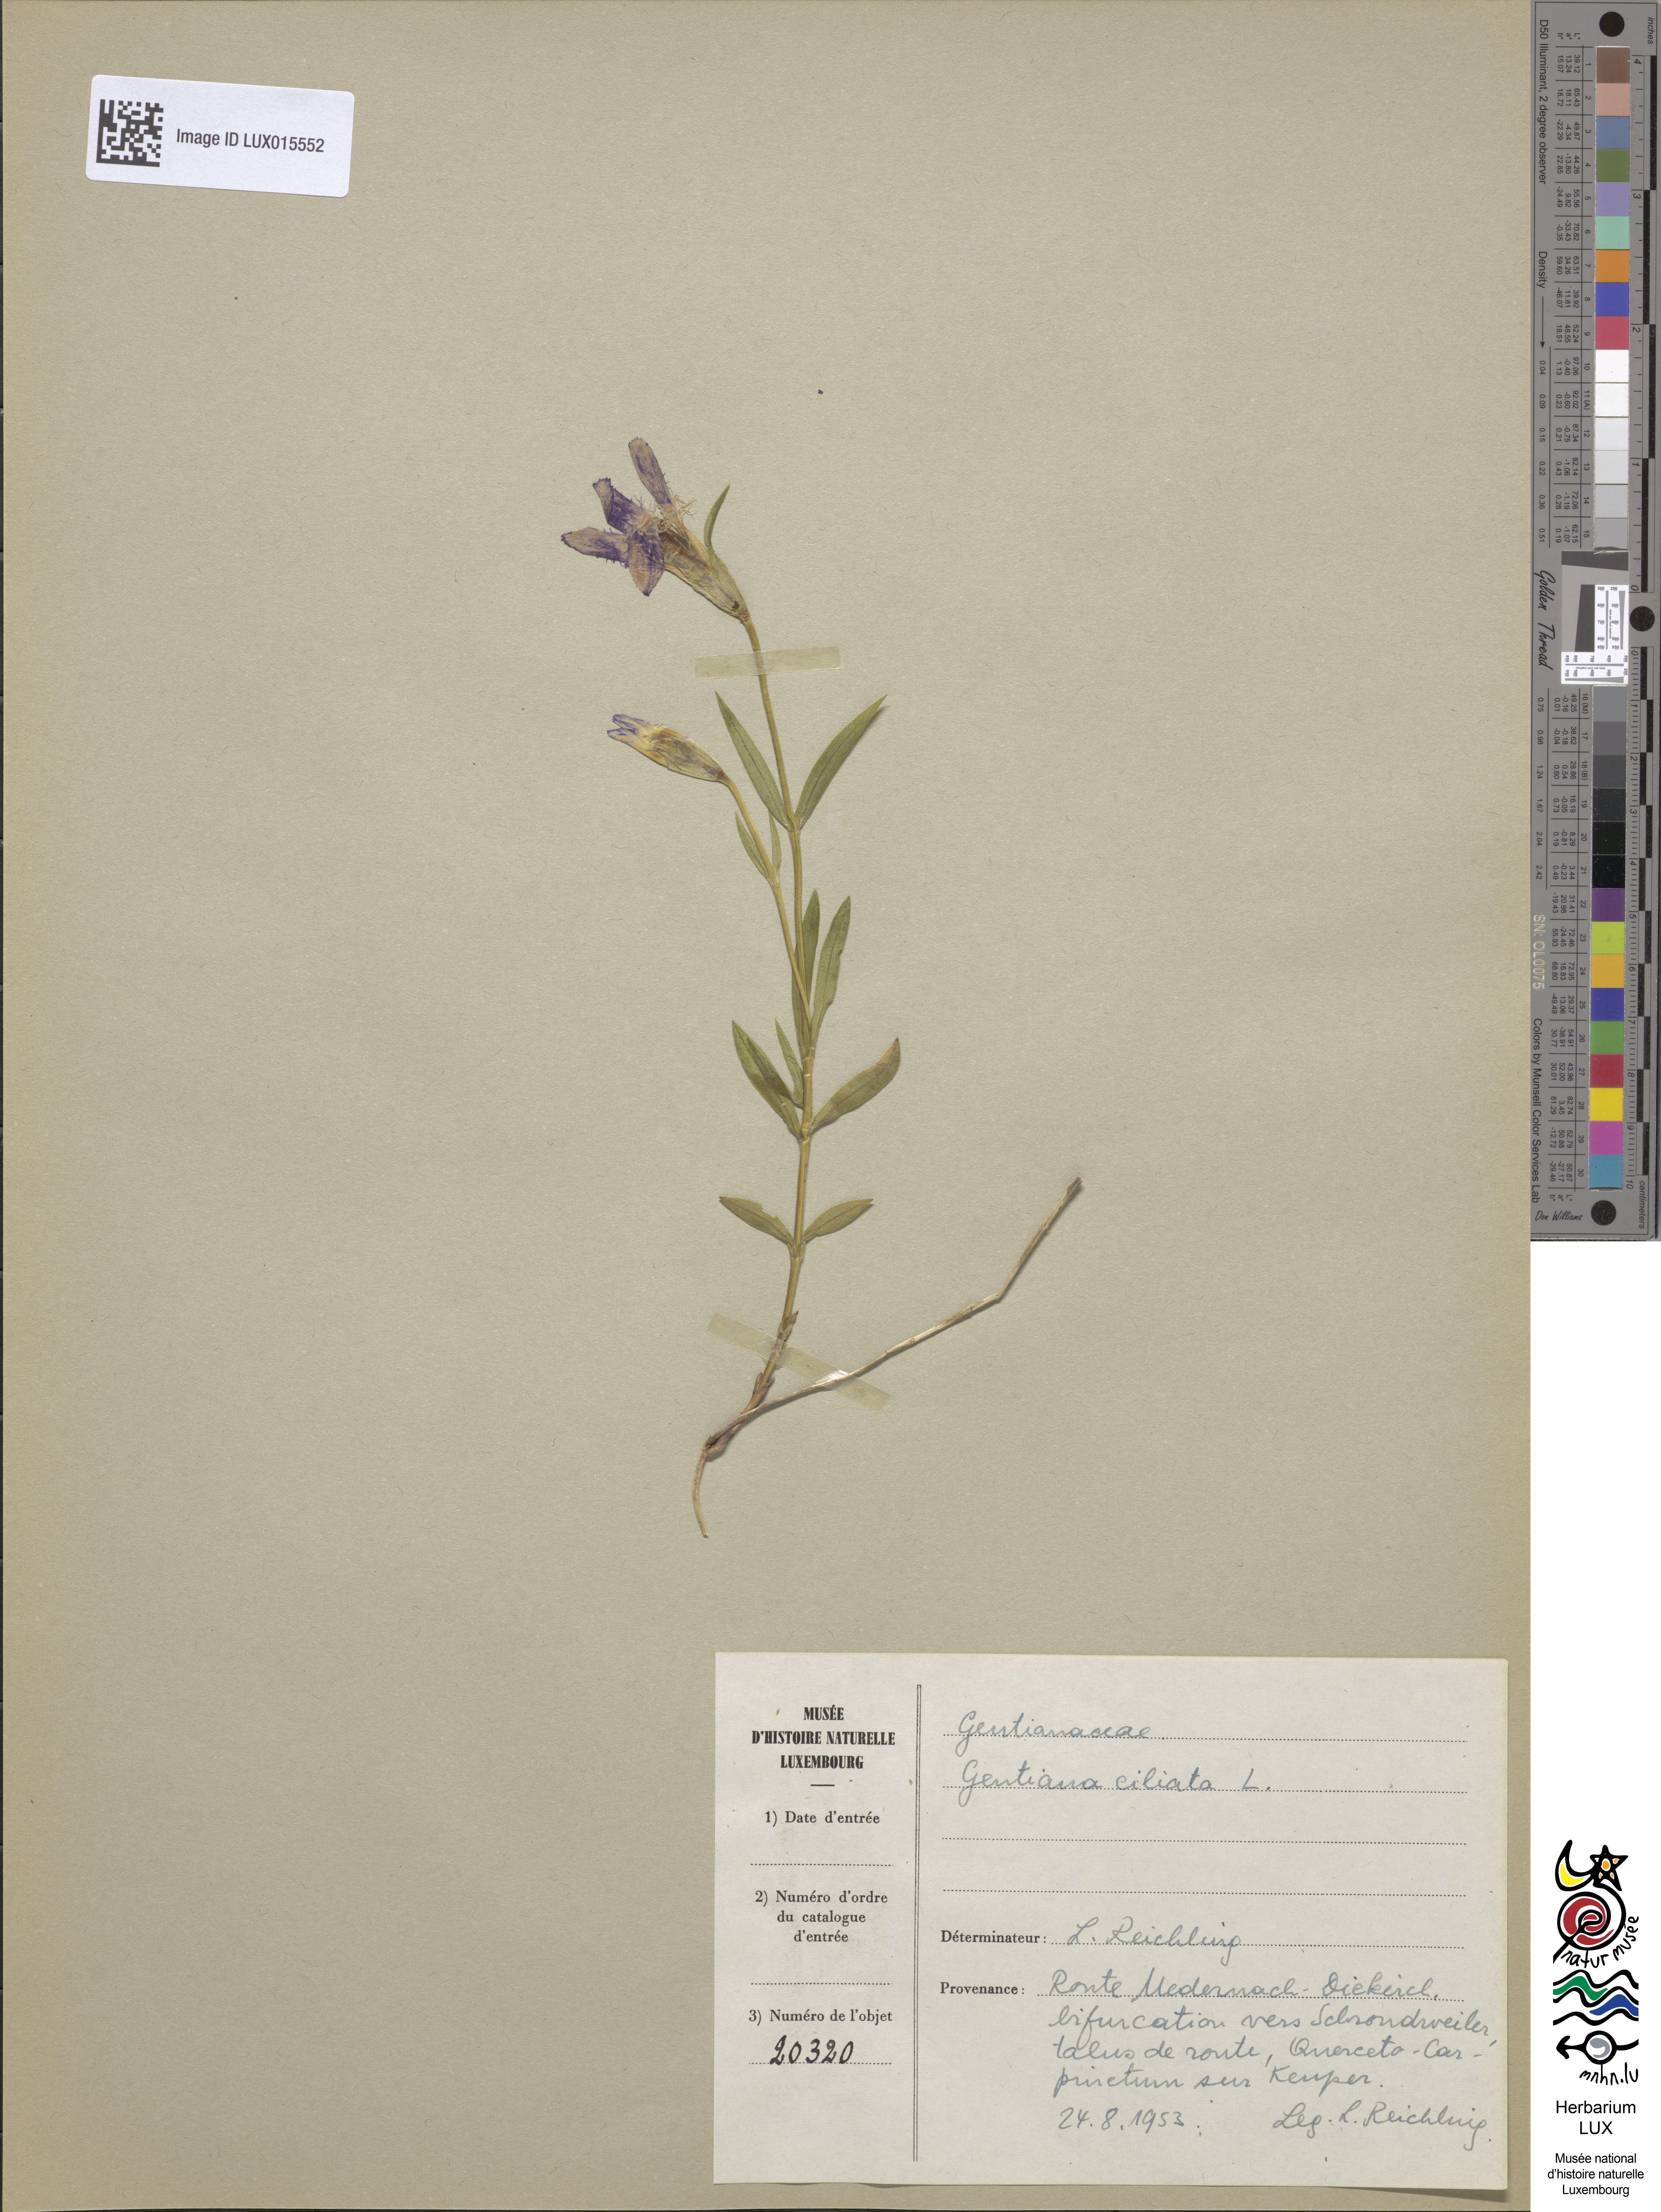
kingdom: Plantae
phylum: Tracheophyta
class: Magnoliopsida
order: Gentianales
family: Gentianaceae
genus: Gentianopsis
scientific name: Gentianopsis ciliata
